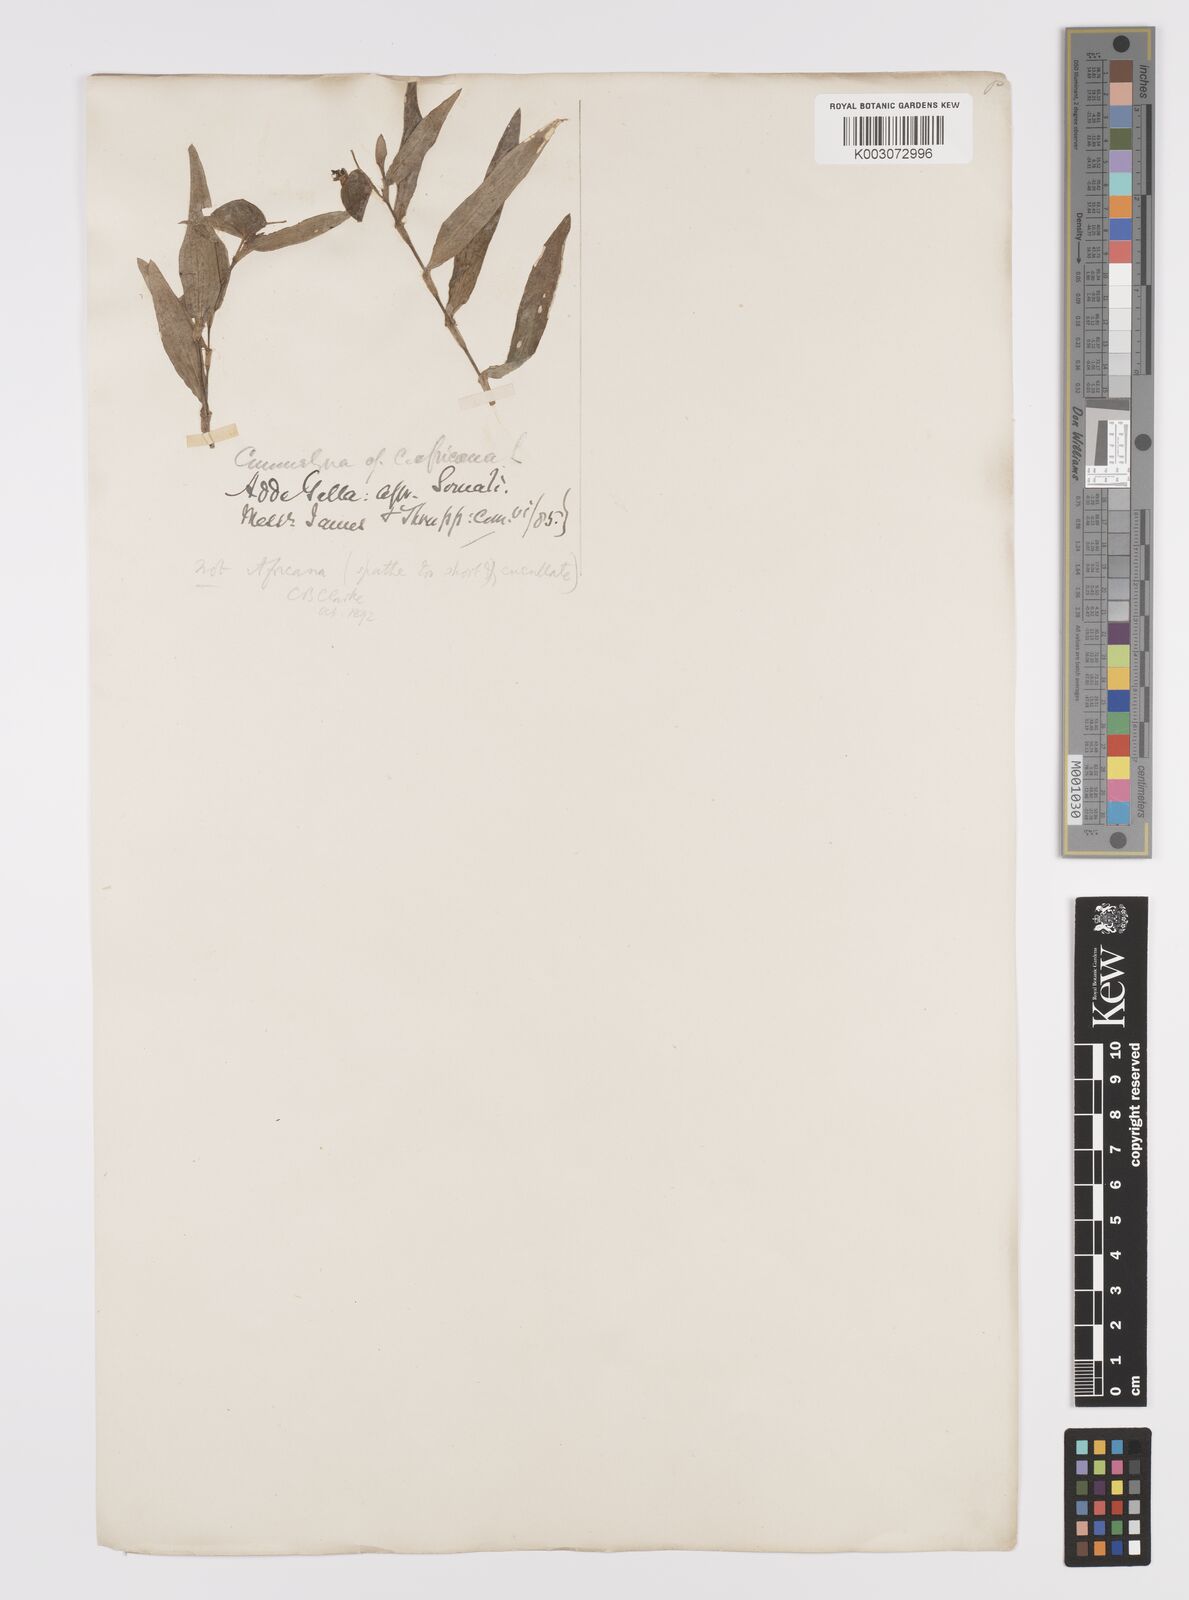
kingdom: Plantae
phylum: Tracheophyta
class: Liliopsida
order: Commelinales
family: Commelinaceae
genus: Commelina
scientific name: Commelina forskaolii
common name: Rat's ear
